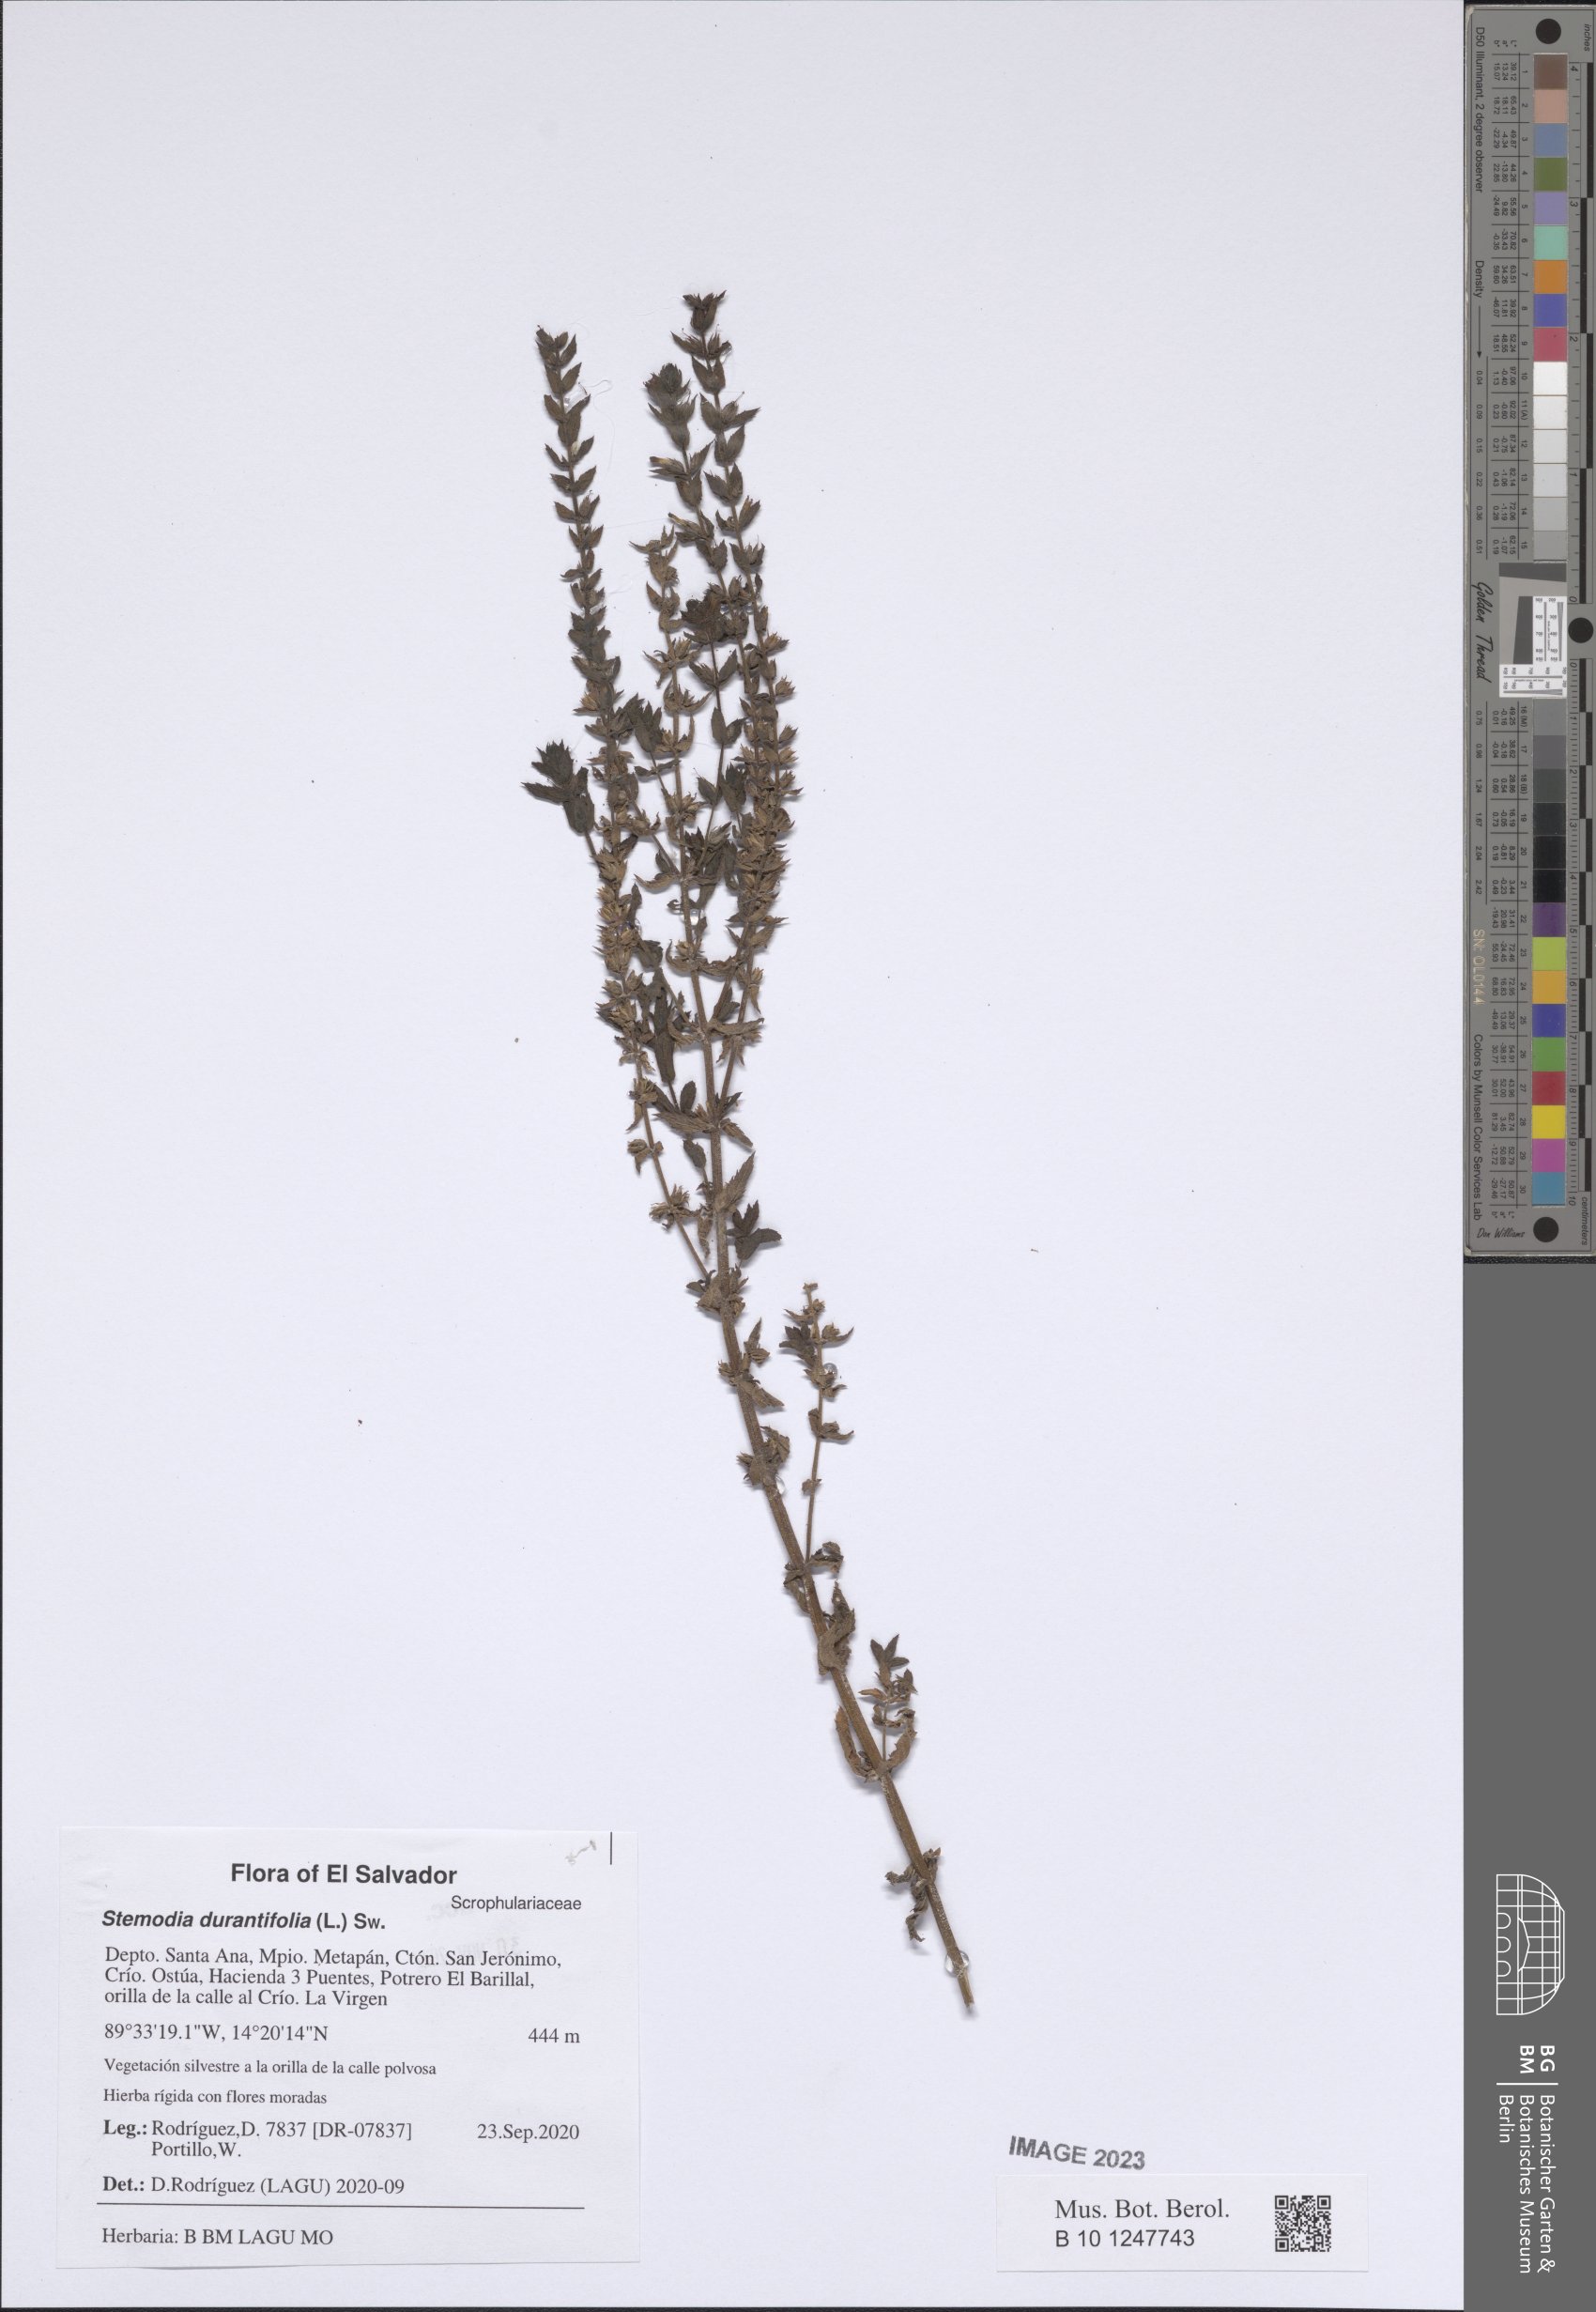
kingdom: Plantae
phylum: Tracheophyta
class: Magnoliopsida
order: Lamiales
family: Plantaginaceae
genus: Stemodia
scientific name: Stemodia durantifolia
